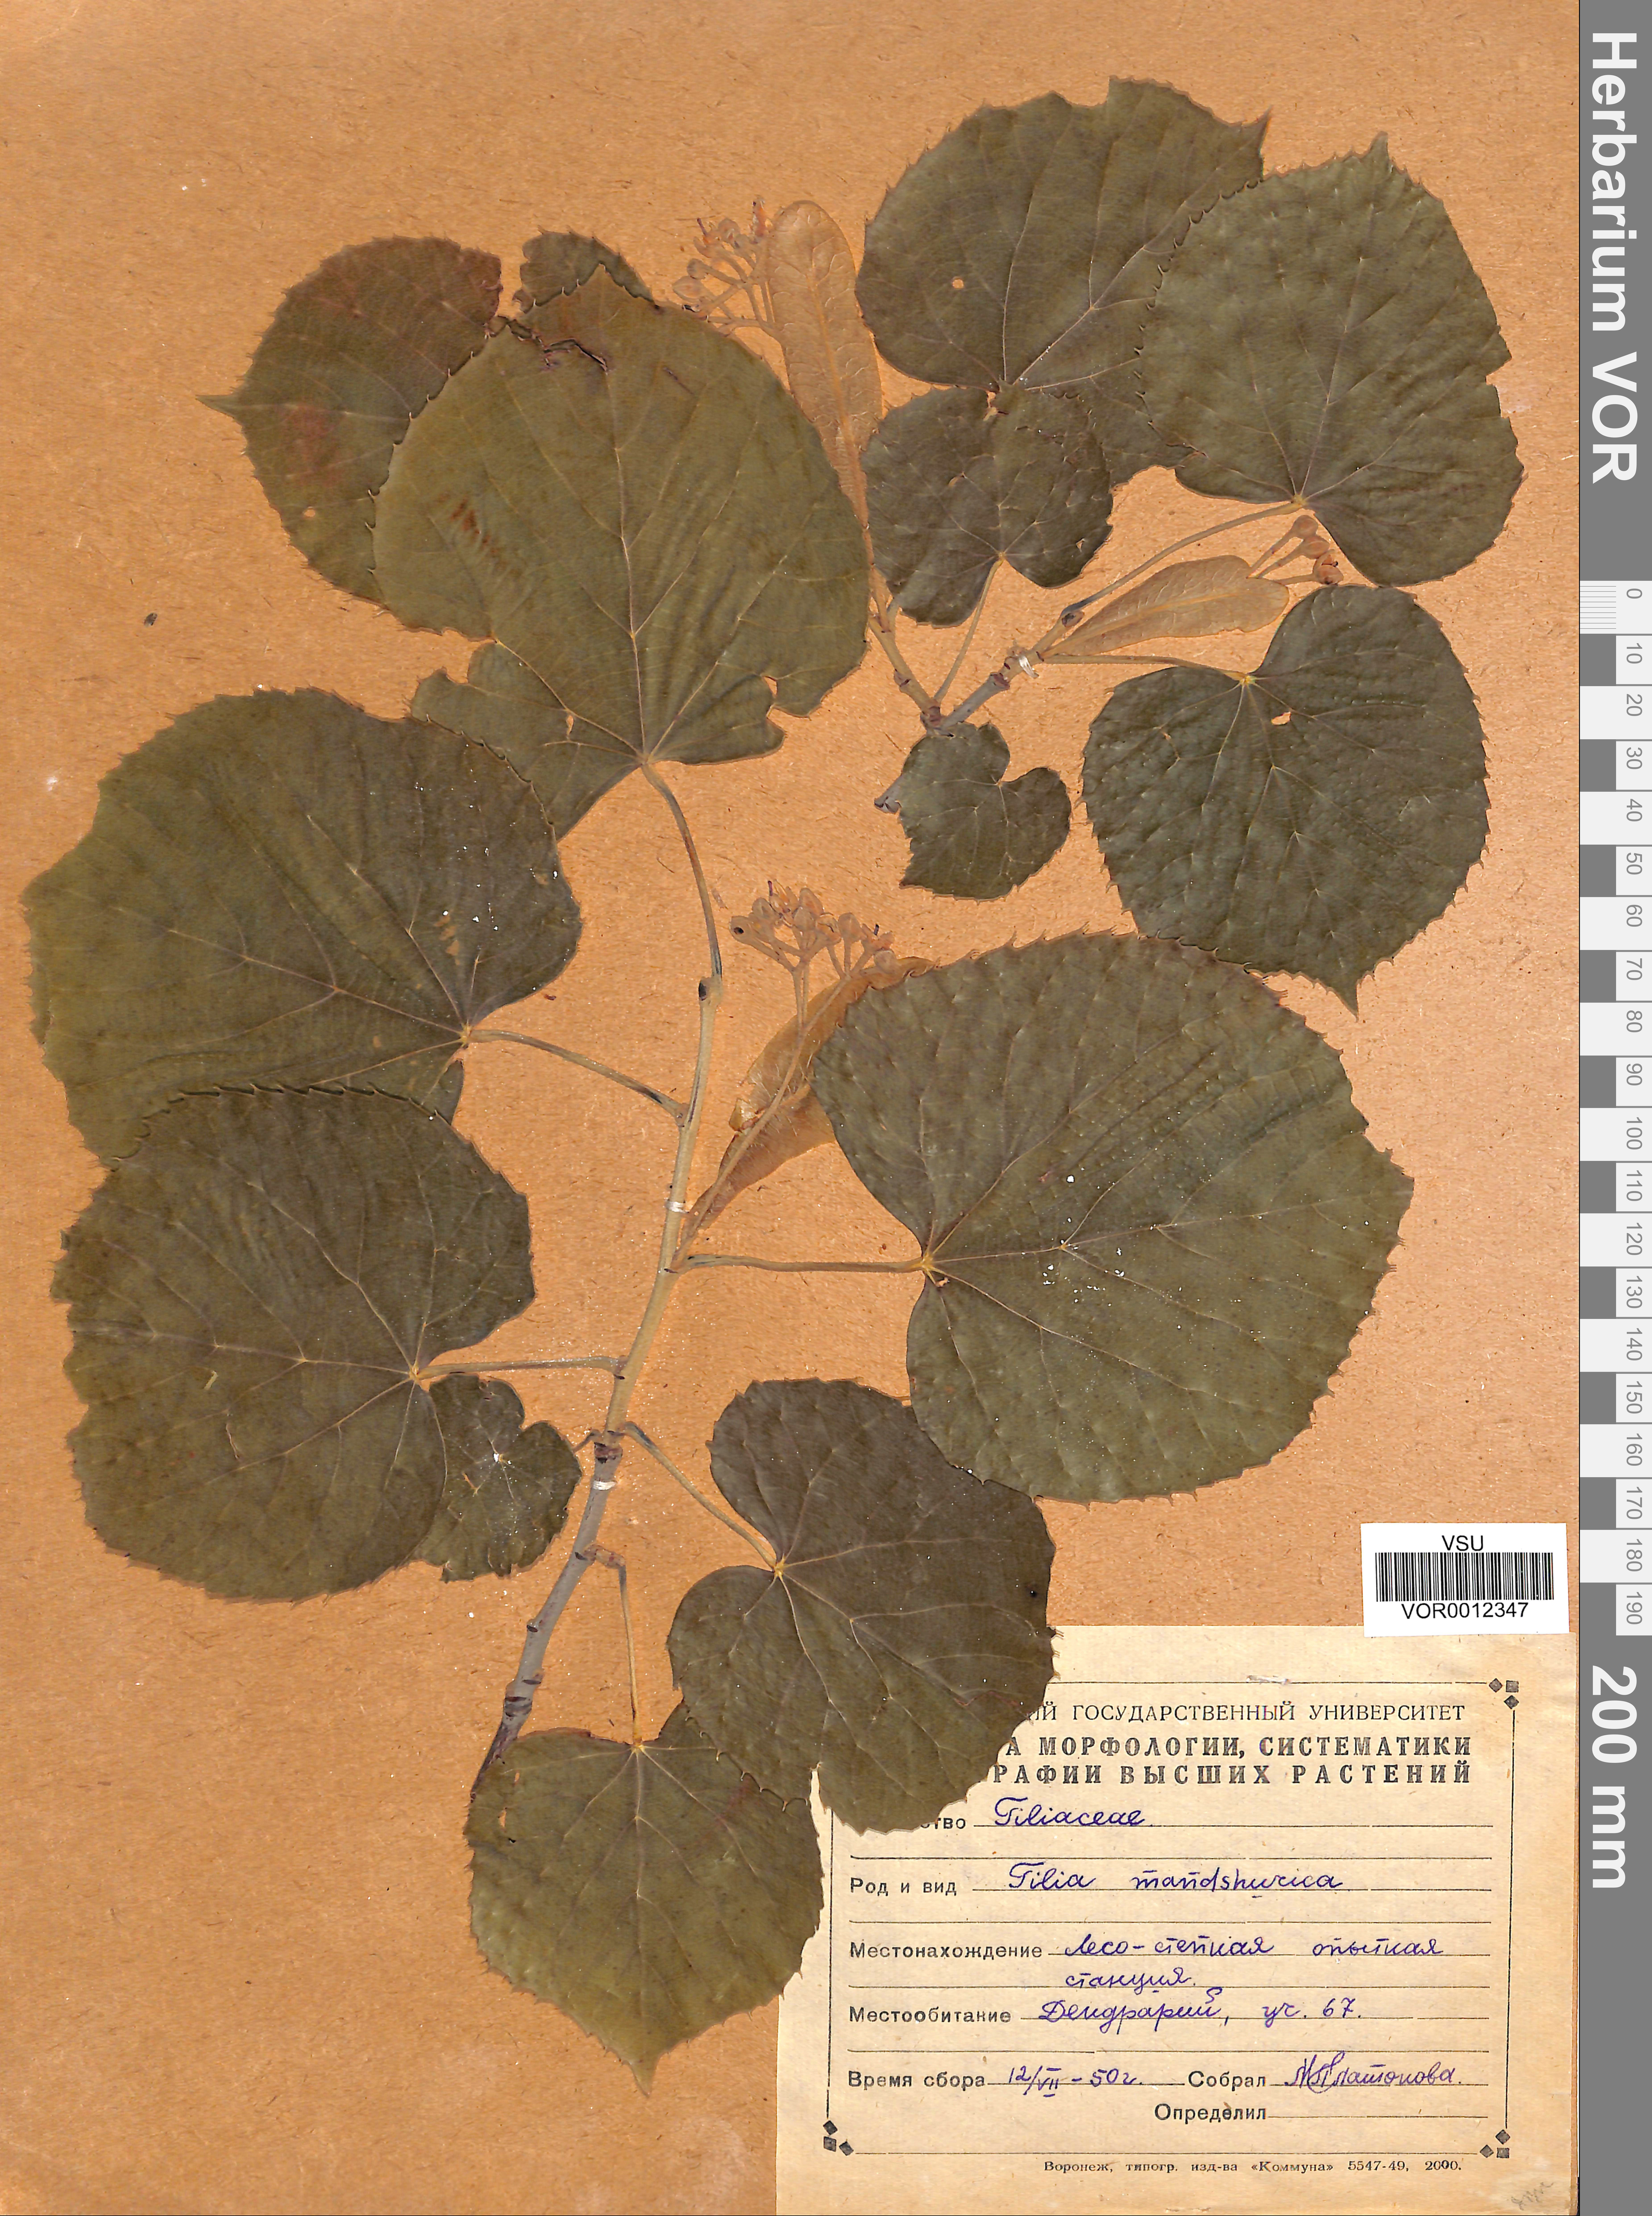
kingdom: Plantae
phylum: Tracheophyta
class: Magnoliopsida
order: Malvales
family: Malvaceae
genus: Tilia
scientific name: Tilia mandshurica
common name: Manchurian linden
